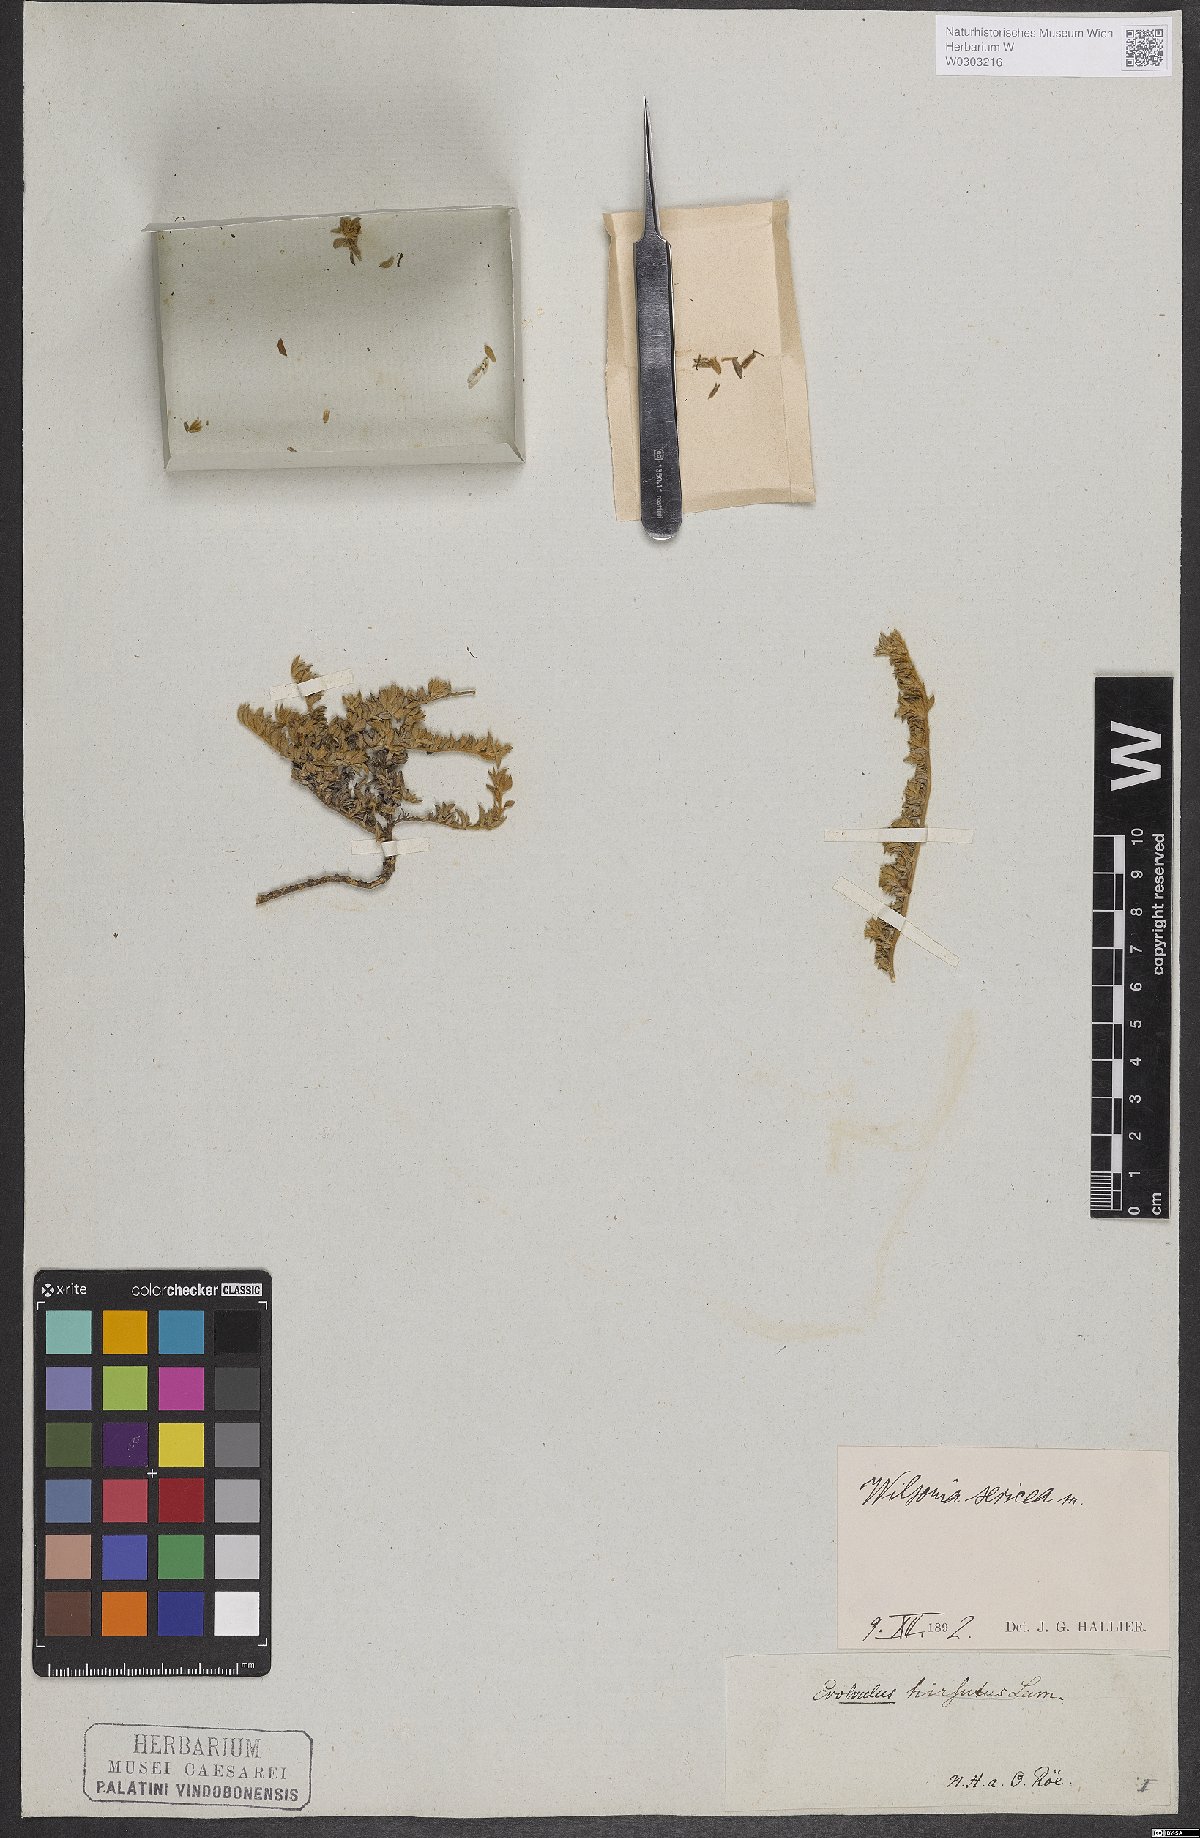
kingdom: Plantae
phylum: Tracheophyta
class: Magnoliopsida
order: Solanales
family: Convolvulaceae
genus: Wilsonia
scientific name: Wilsonia sericea
